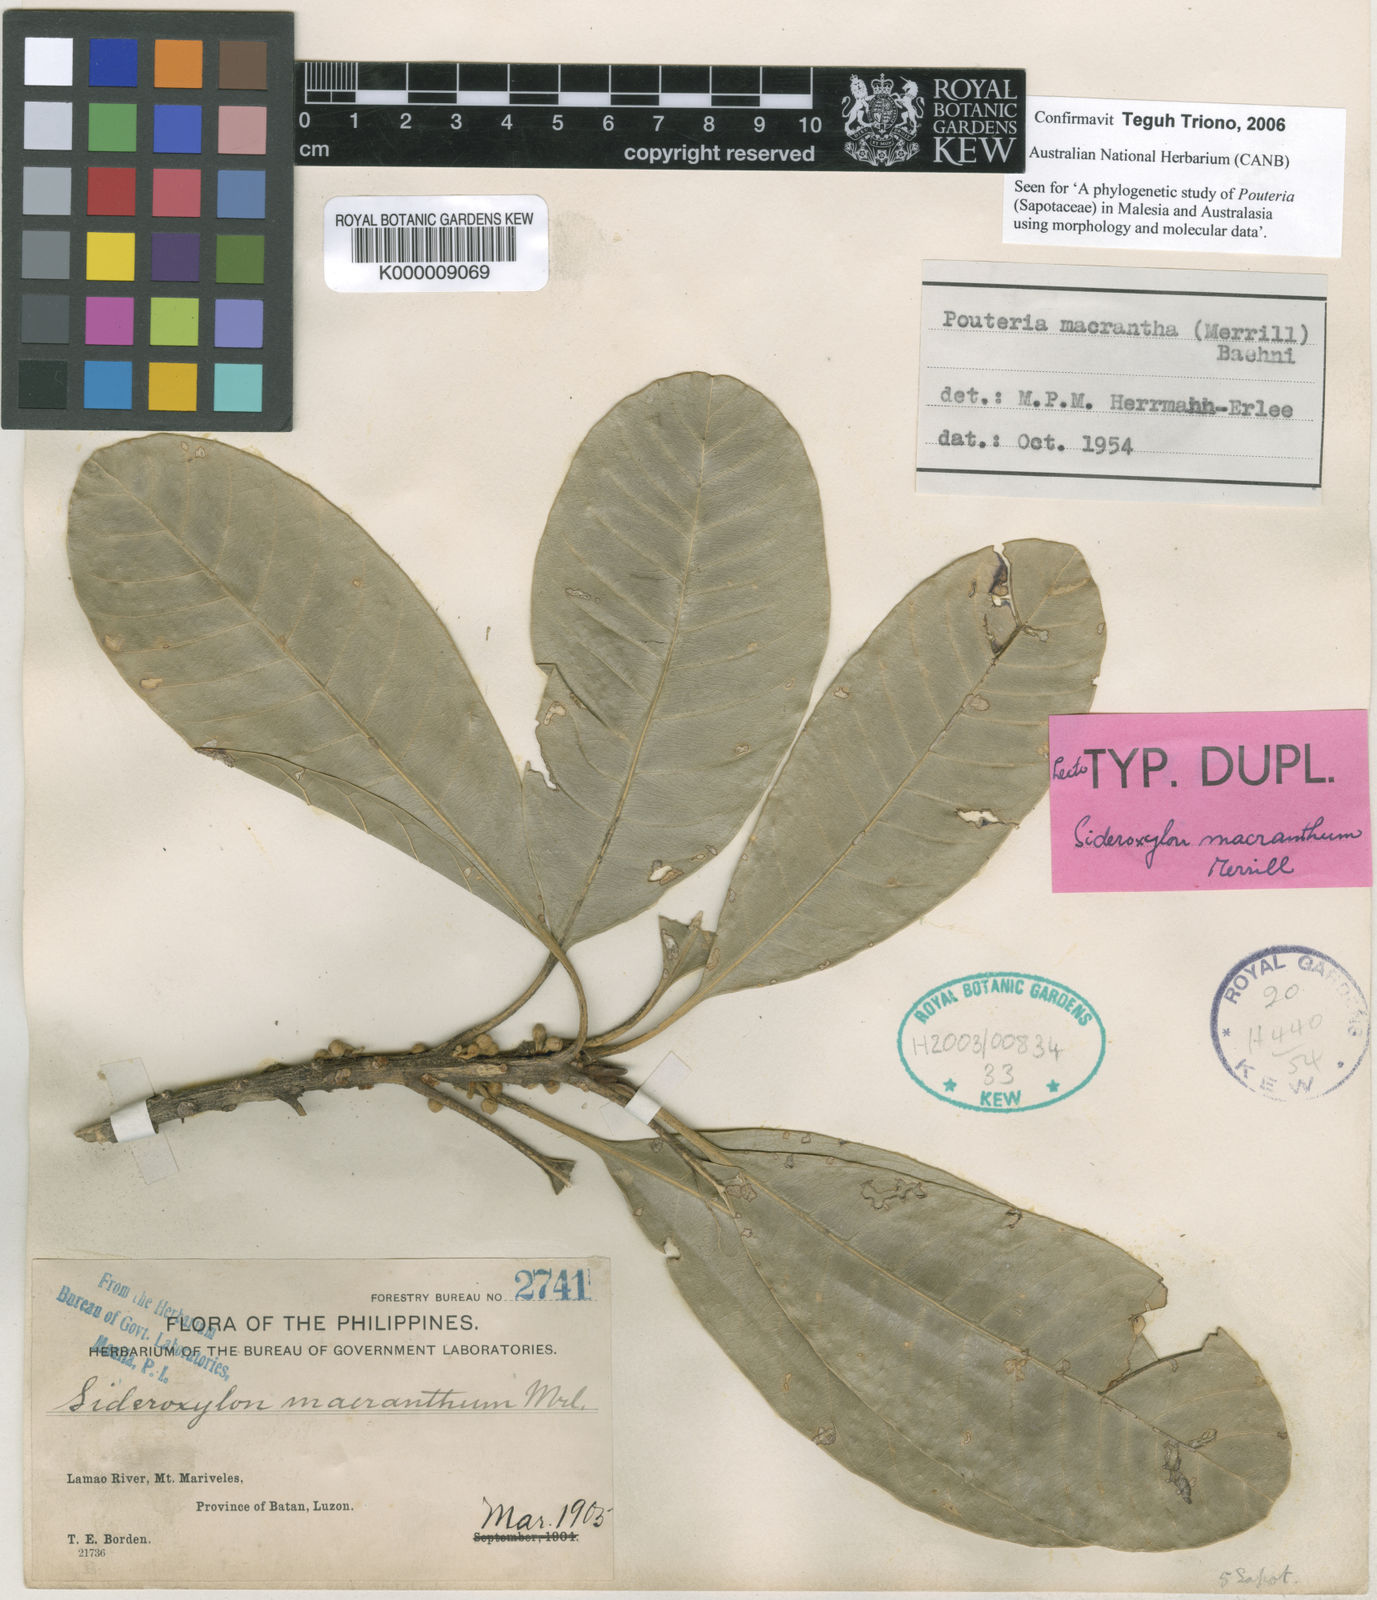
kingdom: Plantae
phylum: Tracheophyta
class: Magnoliopsida
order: Ericales
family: Sapotaceae
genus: Planchonella
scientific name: Planchonella macrantha
